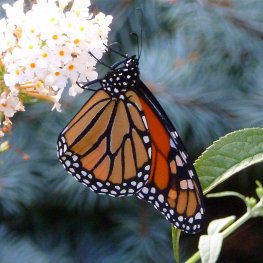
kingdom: Animalia
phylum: Arthropoda
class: Insecta
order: Lepidoptera
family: Nymphalidae
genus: Danaus
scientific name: Danaus plexippus
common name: Monarch
